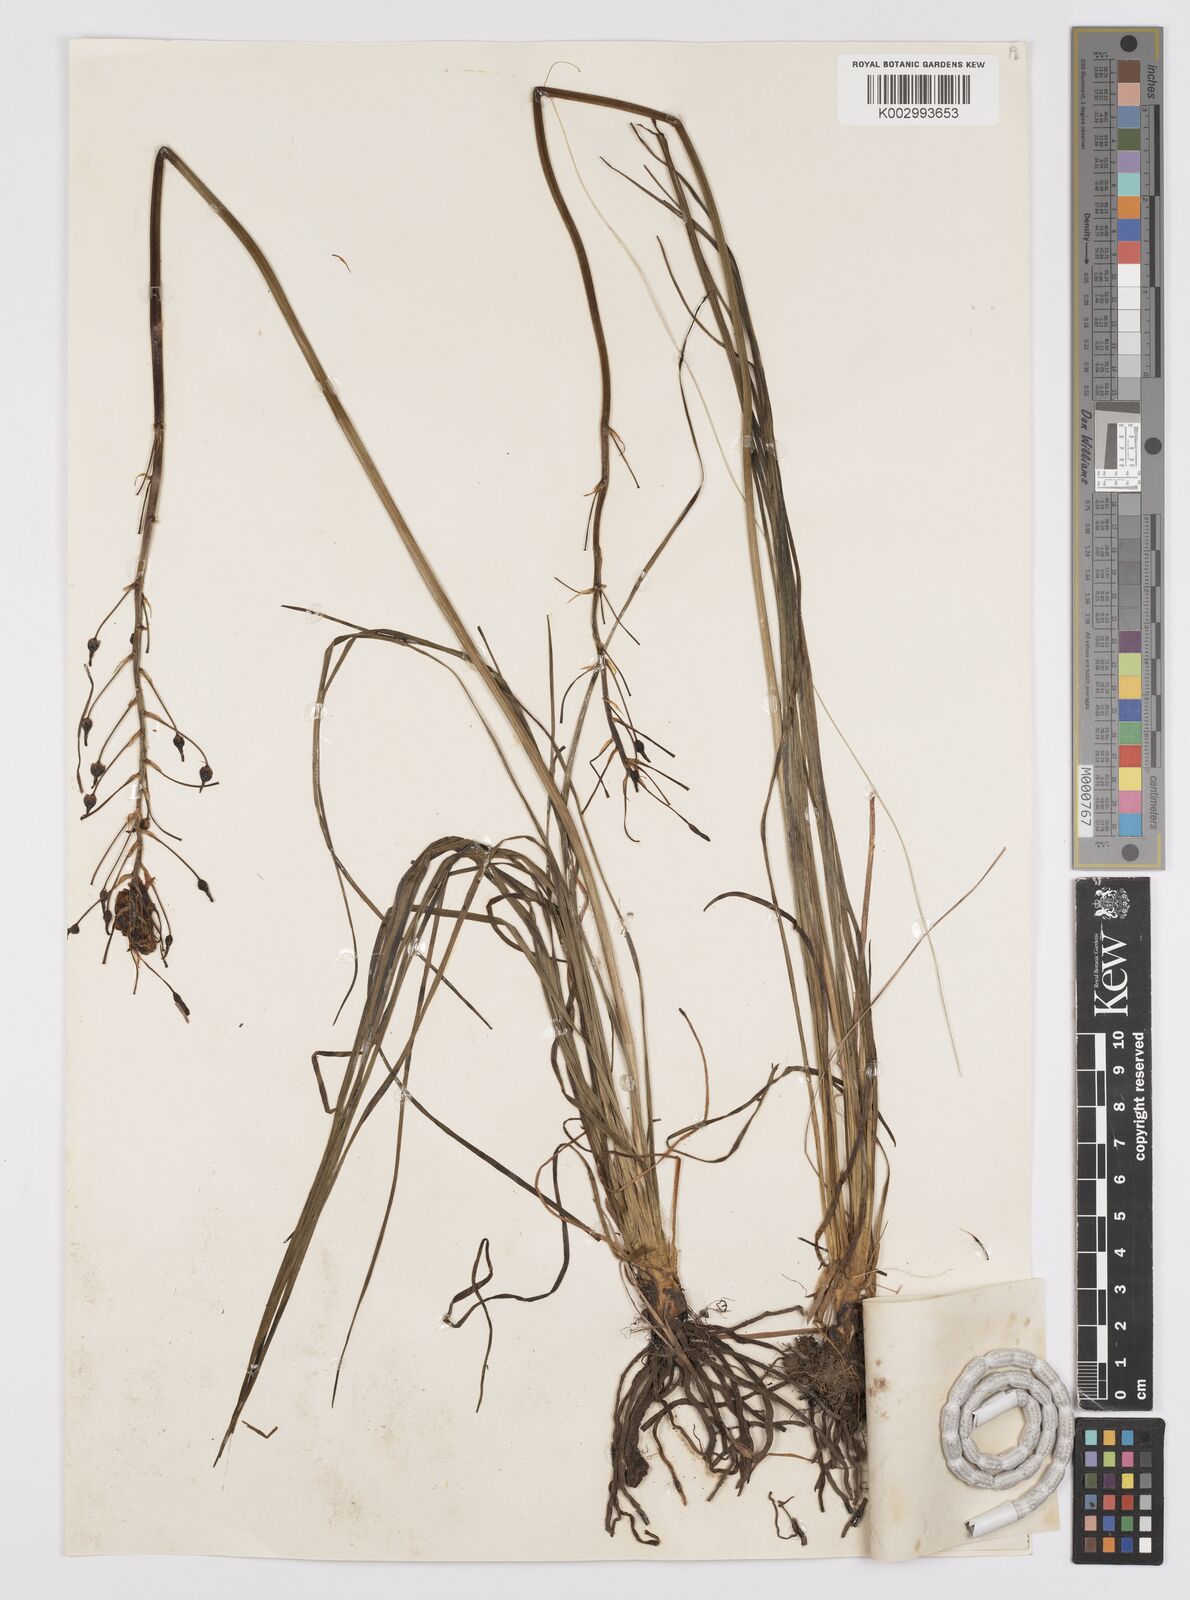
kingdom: Plantae
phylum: Tracheophyta
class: Liliopsida
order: Asparagales
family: Asphodelaceae
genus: Bulbine
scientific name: Bulbine capitata
